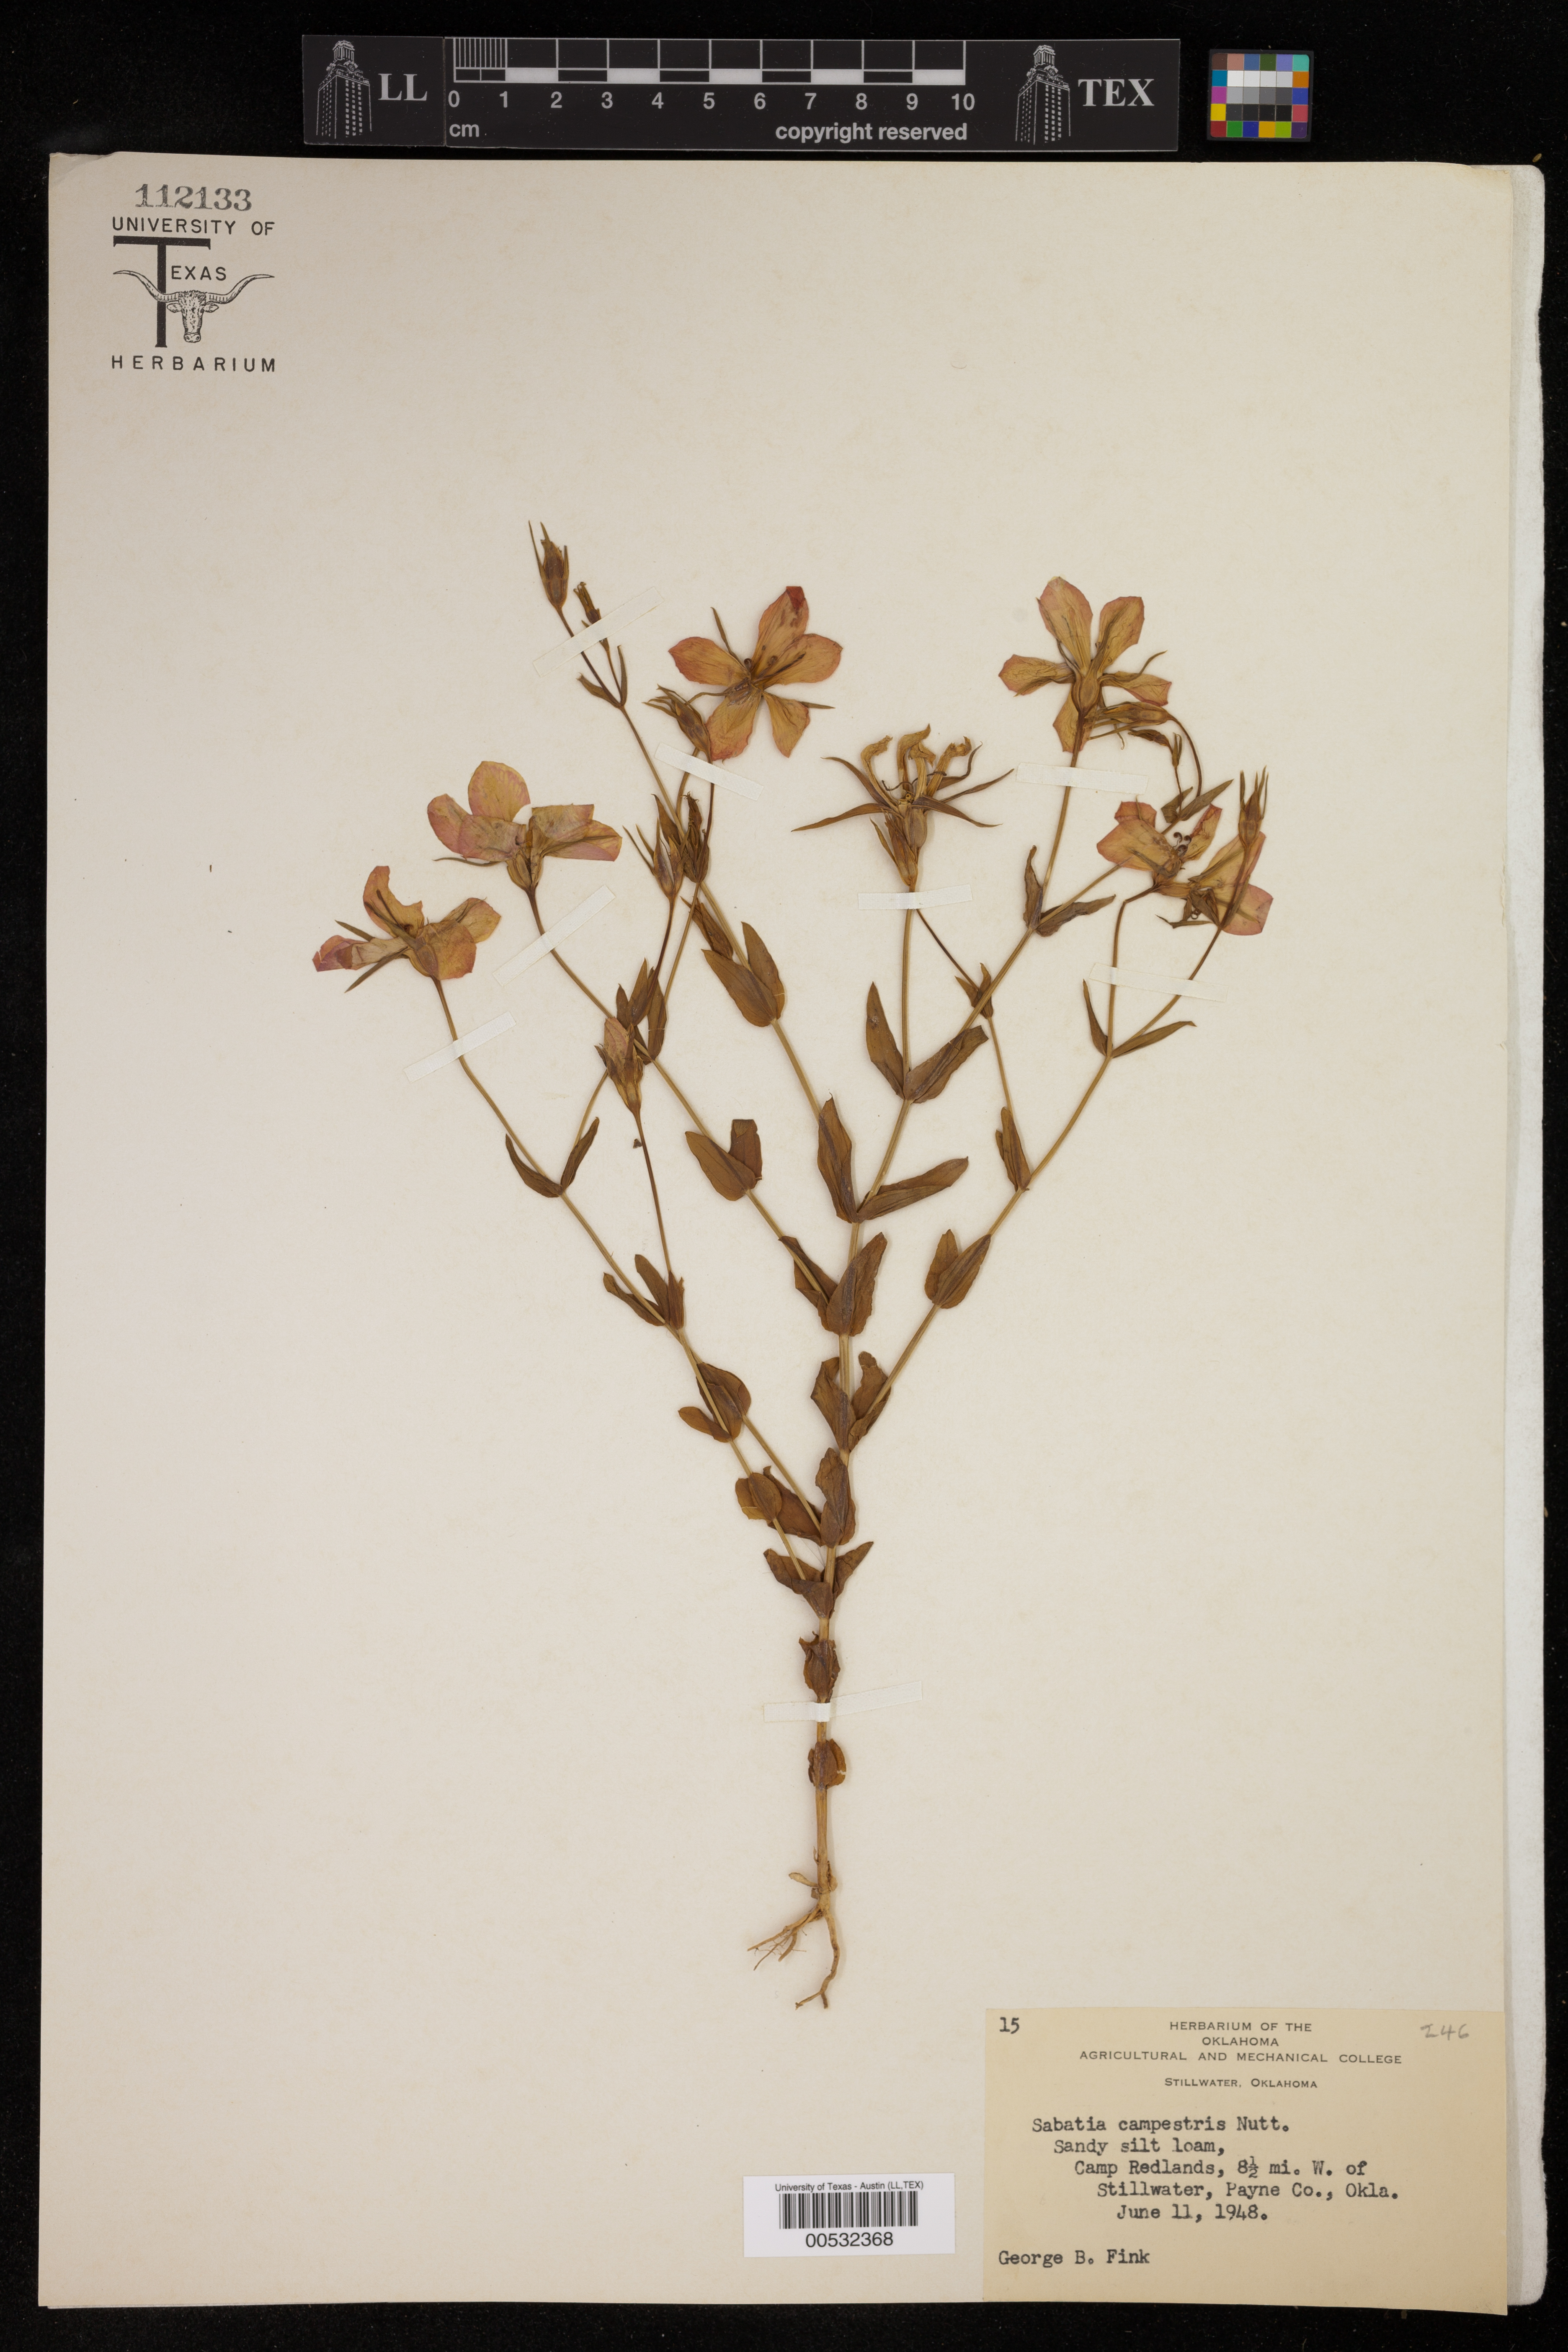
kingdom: Plantae
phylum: Tracheophyta
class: Magnoliopsida
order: Gentianales
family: Gentianaceae
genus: Sabatia
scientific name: Sabatia campestris
